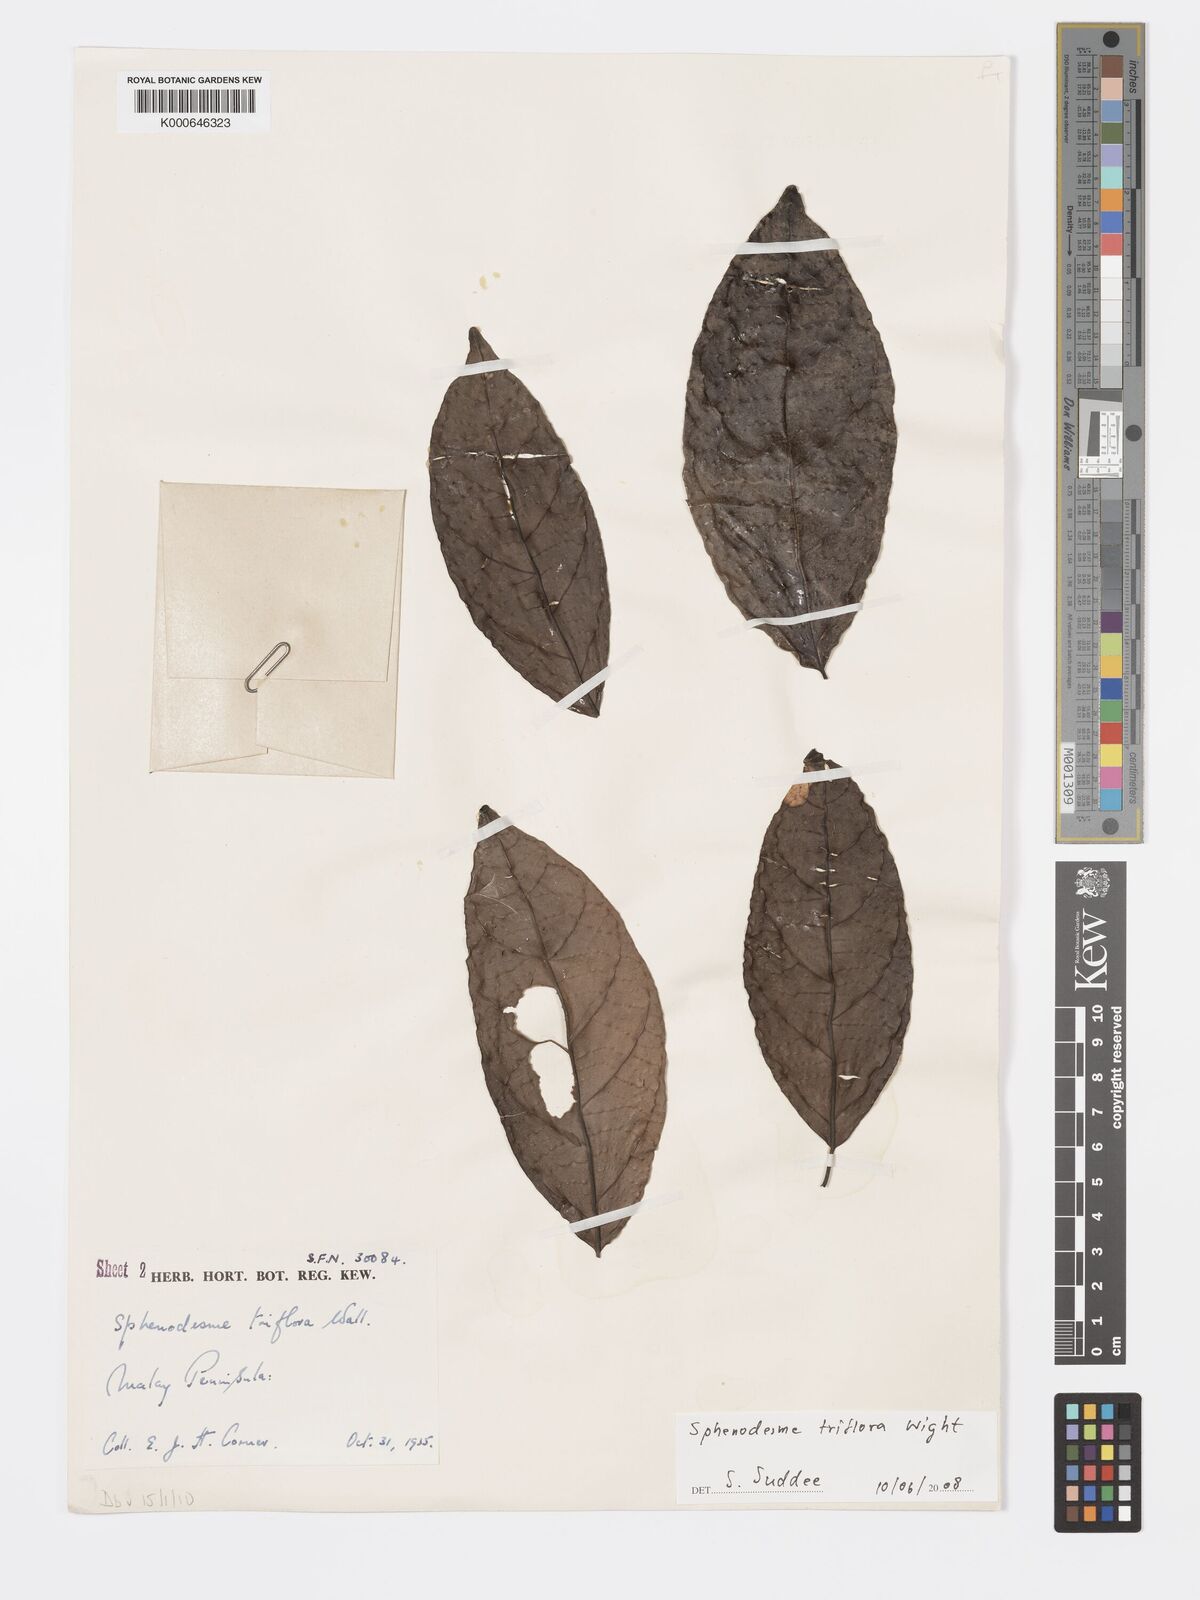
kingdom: Plantae
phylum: Tracheophyta
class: Magnoliopsida
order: Lamiales
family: Lamiaceae
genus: Sphenodesme
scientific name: Sphenodesme
